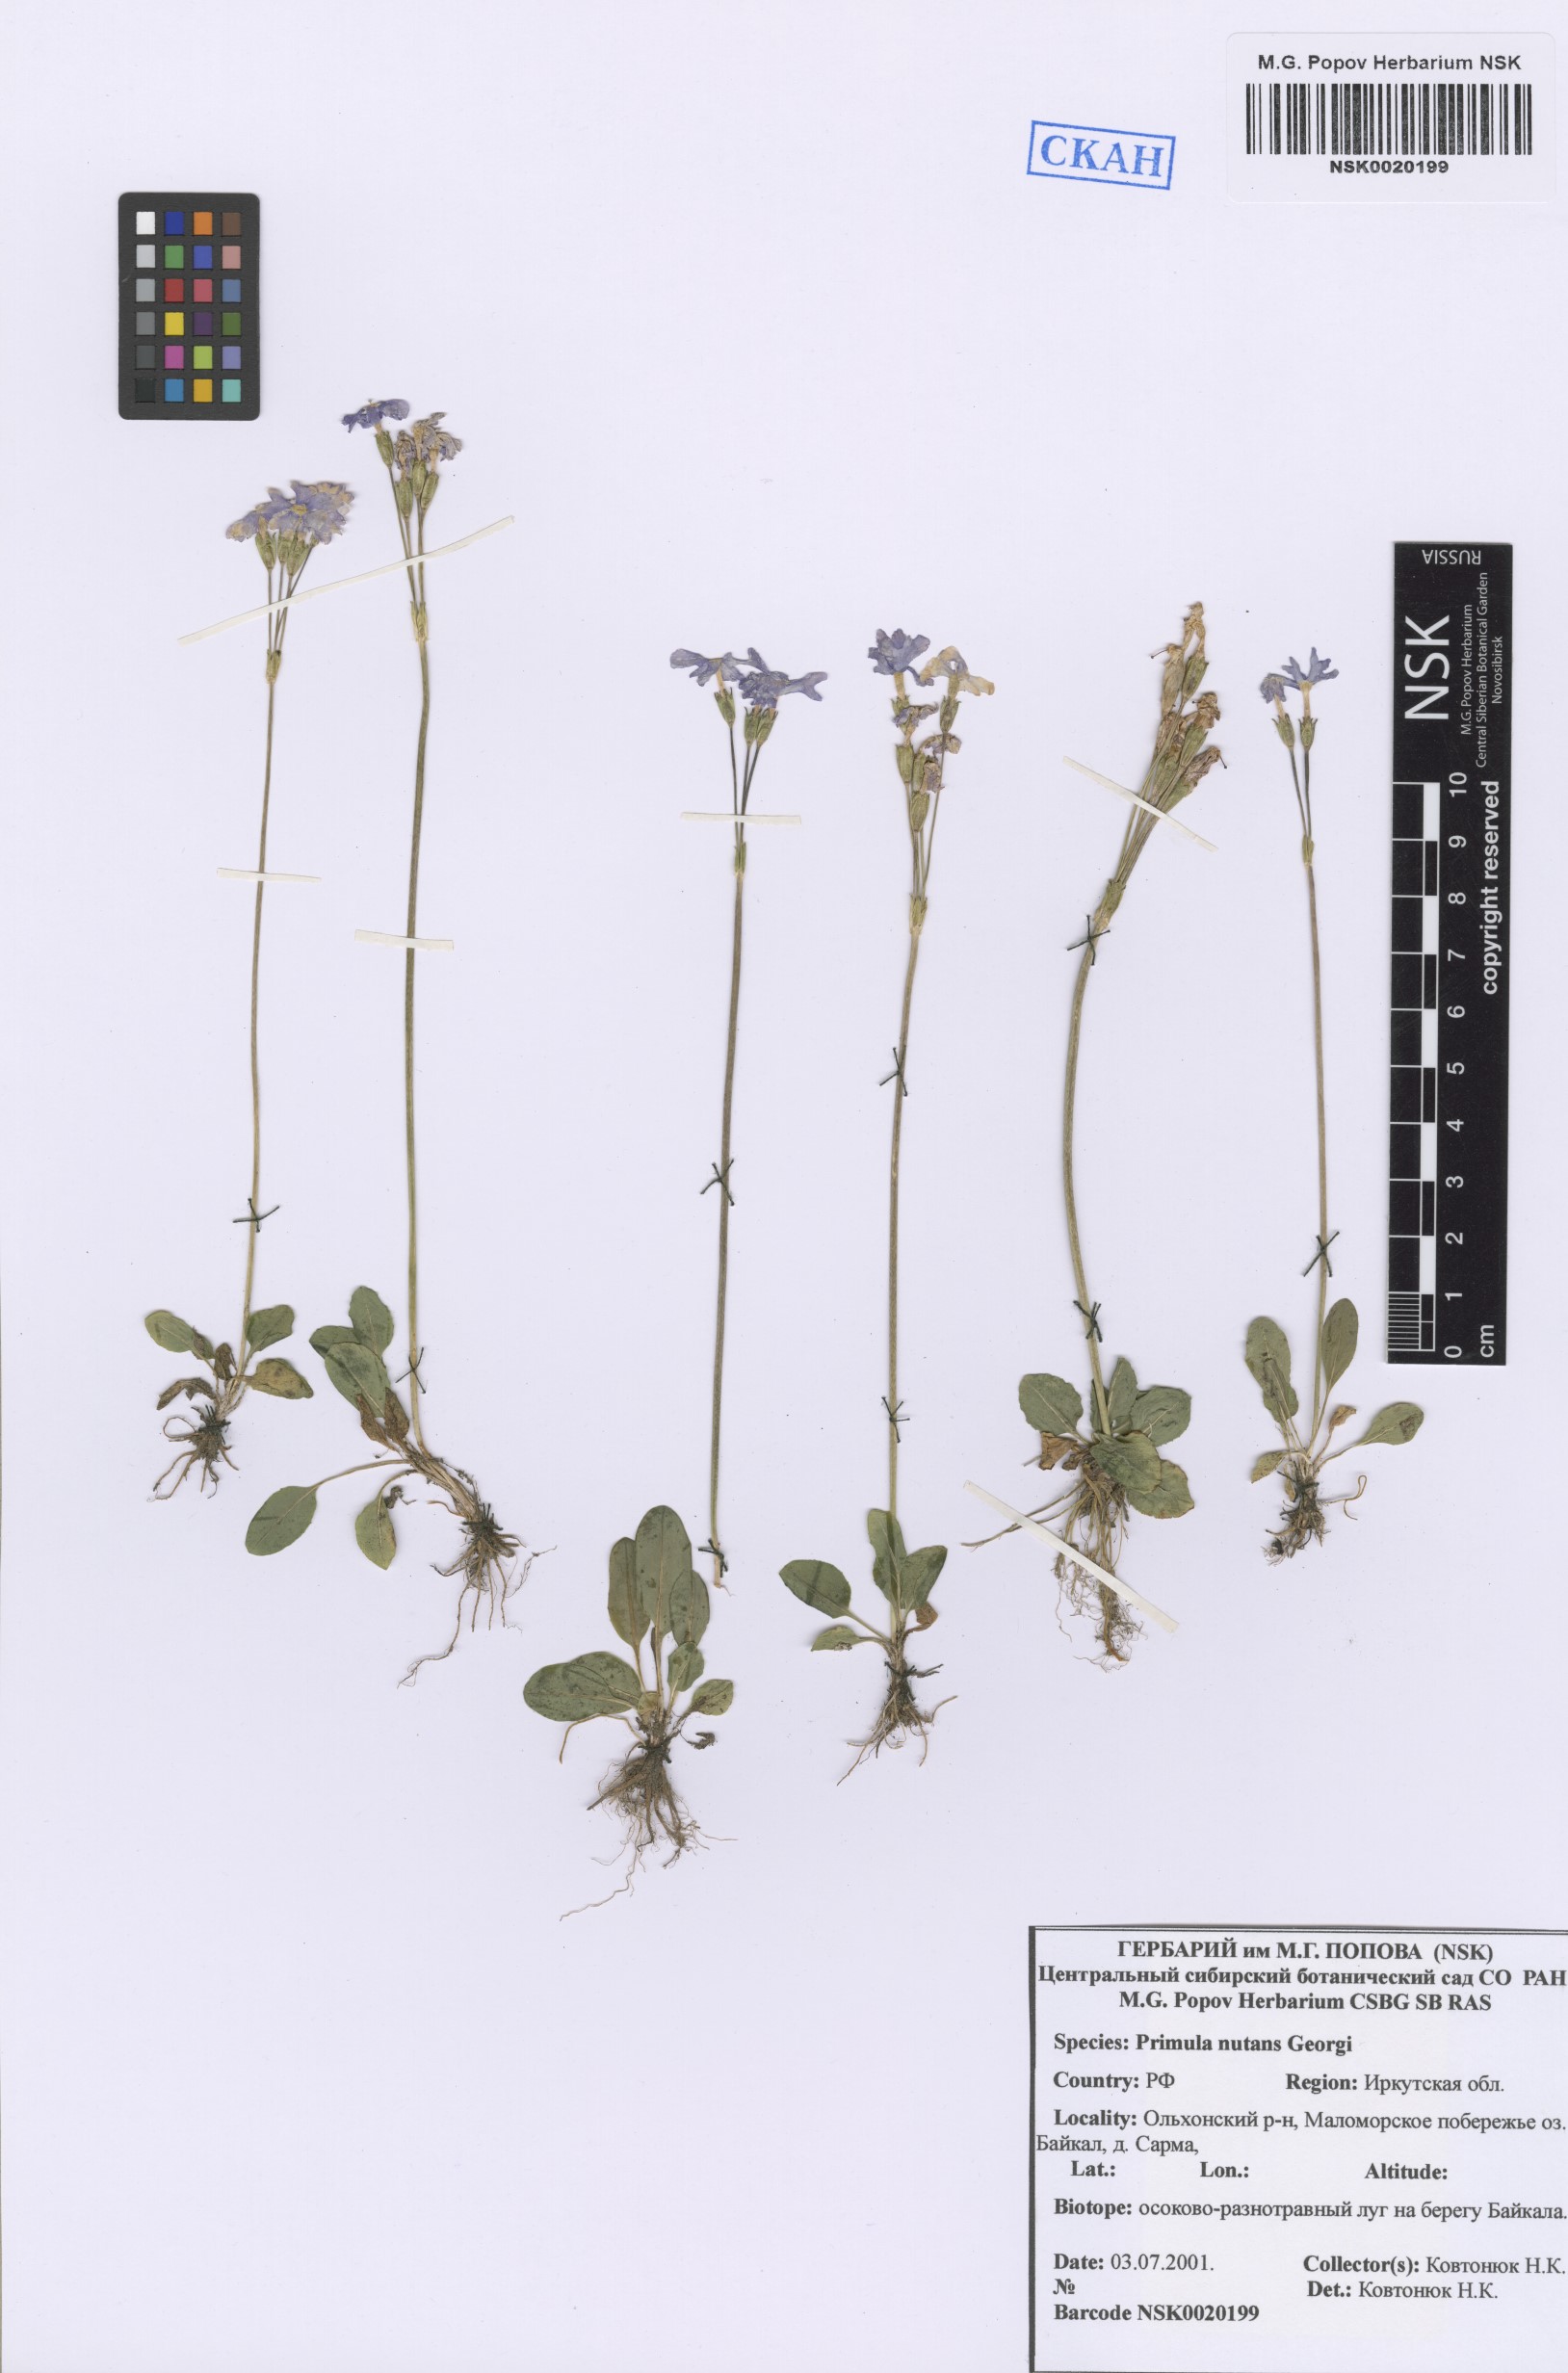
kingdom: Plantae
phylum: Tracheophyta
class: Magnoliopsida
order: Ericales
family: Primulaceae
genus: Primula
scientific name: Primula nutans
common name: Siberian primrose
